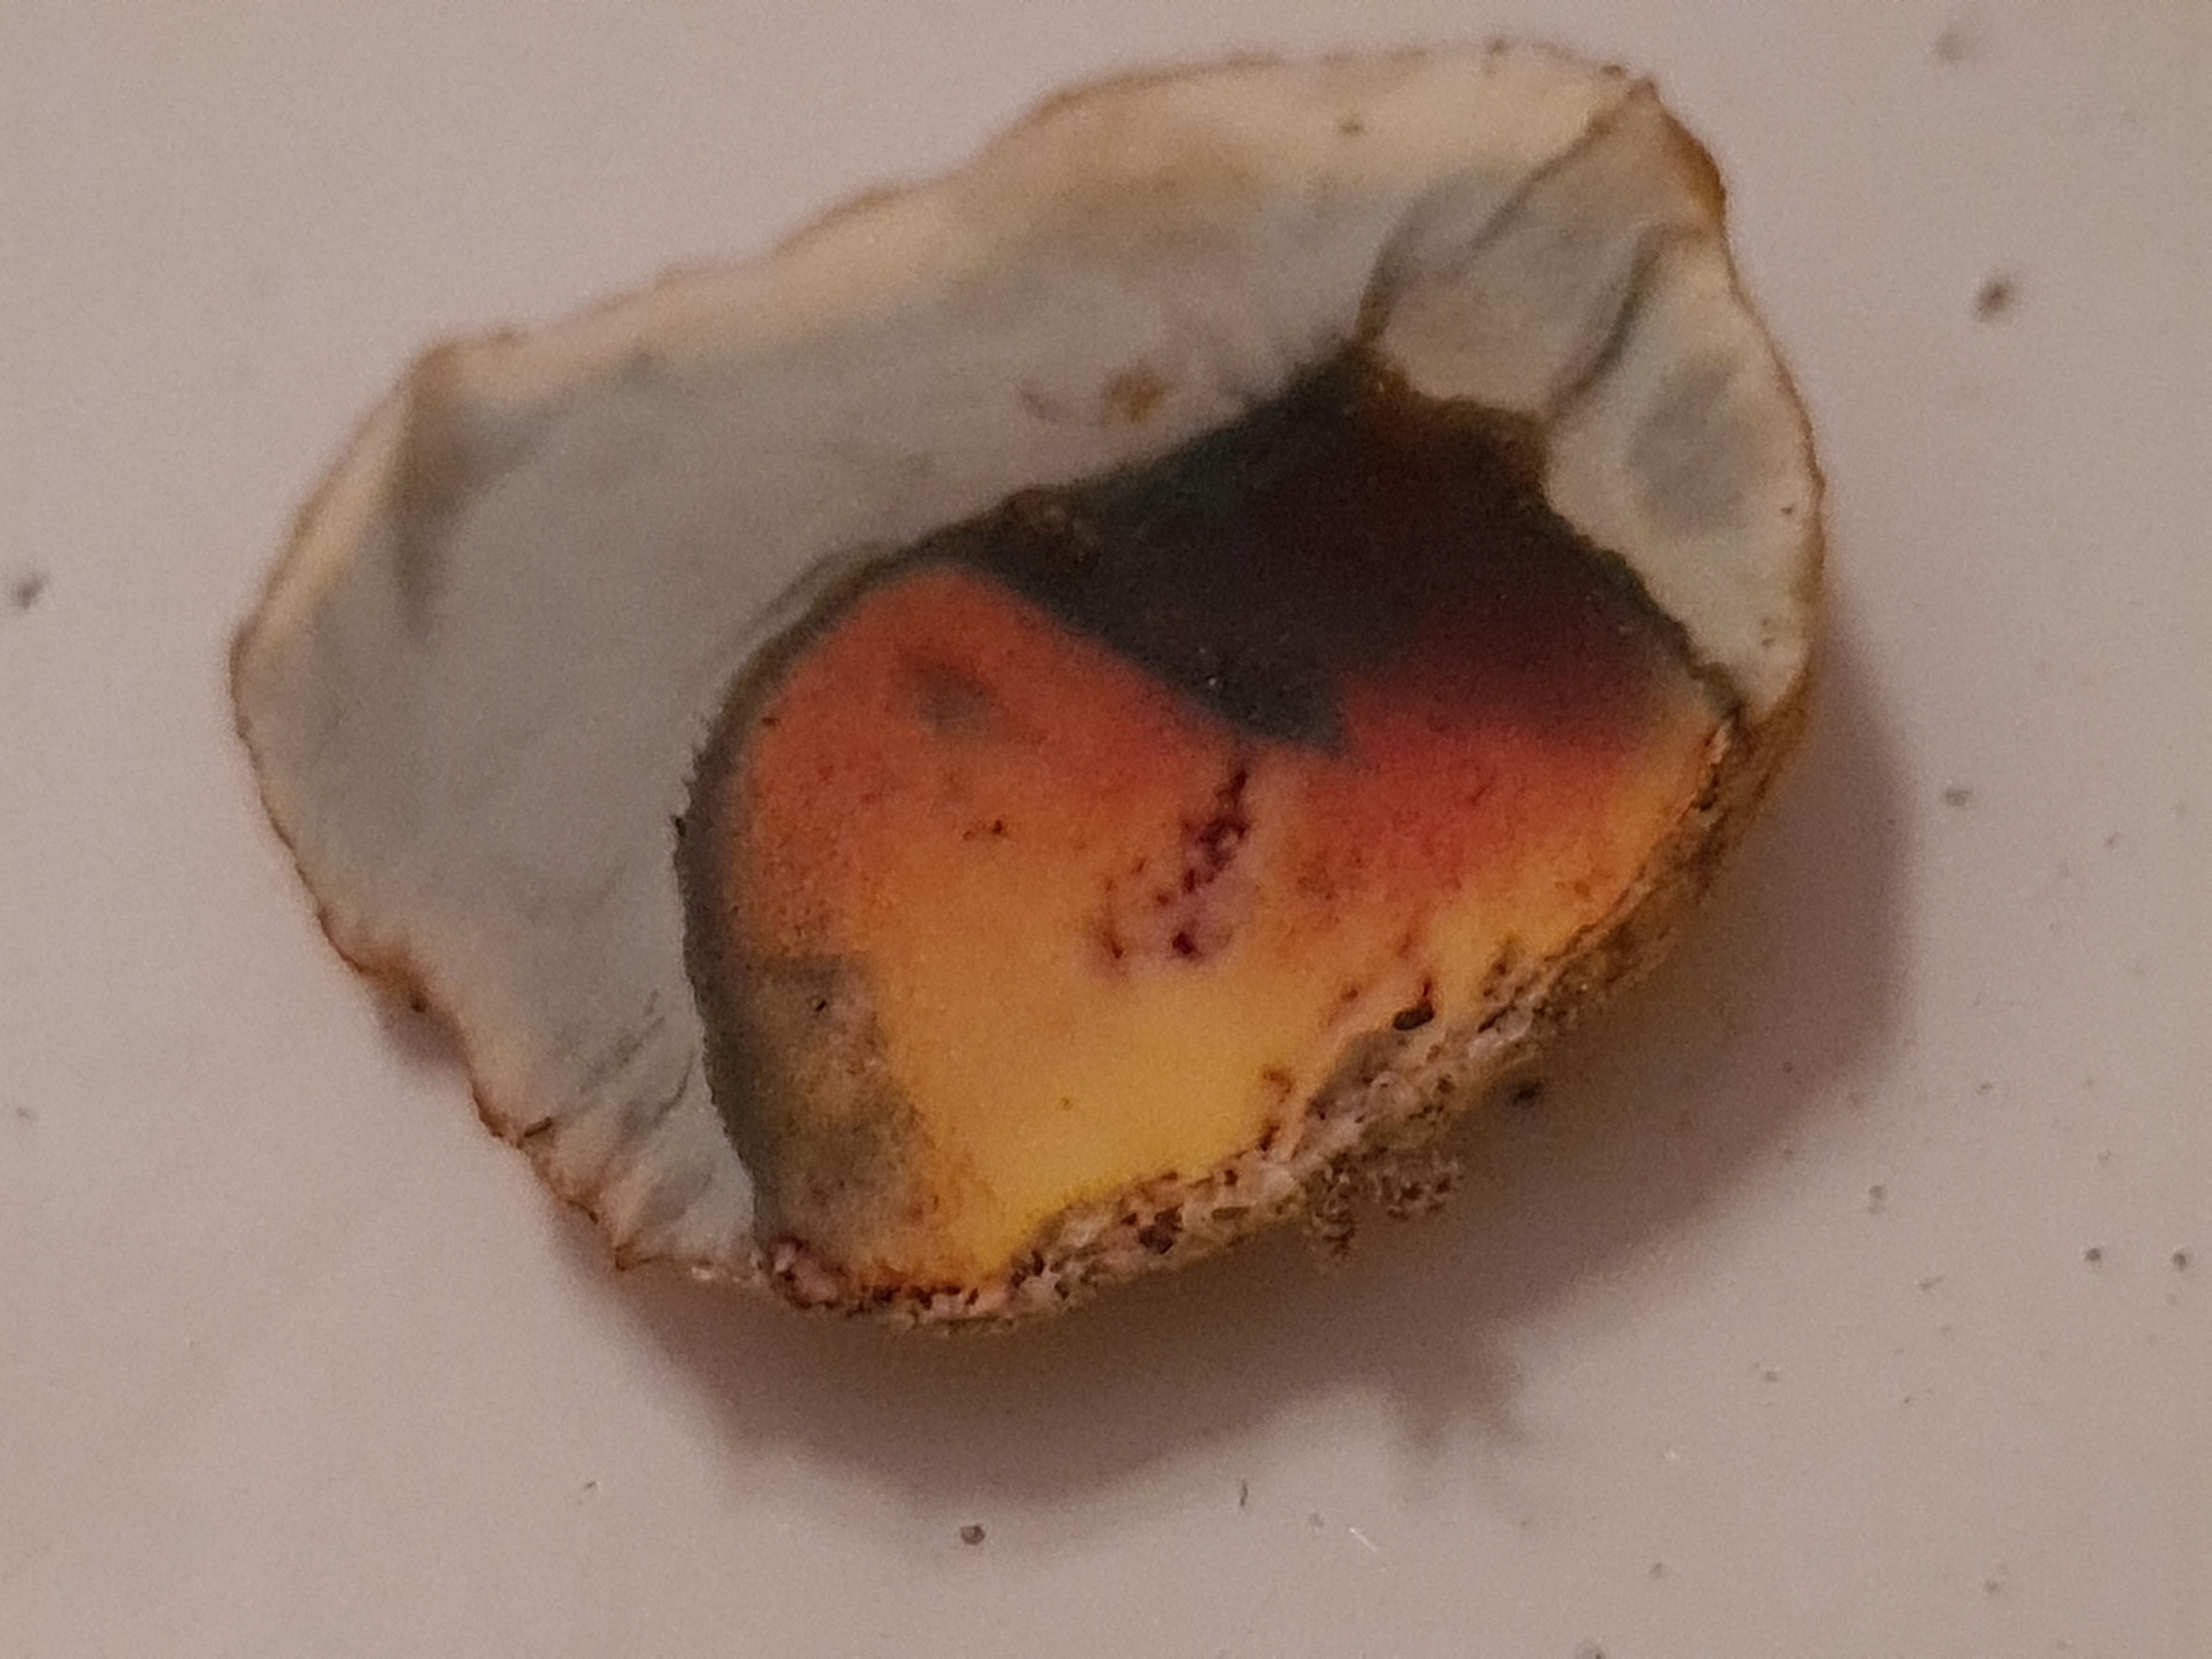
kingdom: Fungi
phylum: Basidiomycota
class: Agaricomycetes
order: Boletales
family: Boletaceae
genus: Rubroboletus
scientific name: Rubroboletus satanas
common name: Satans rørhat
